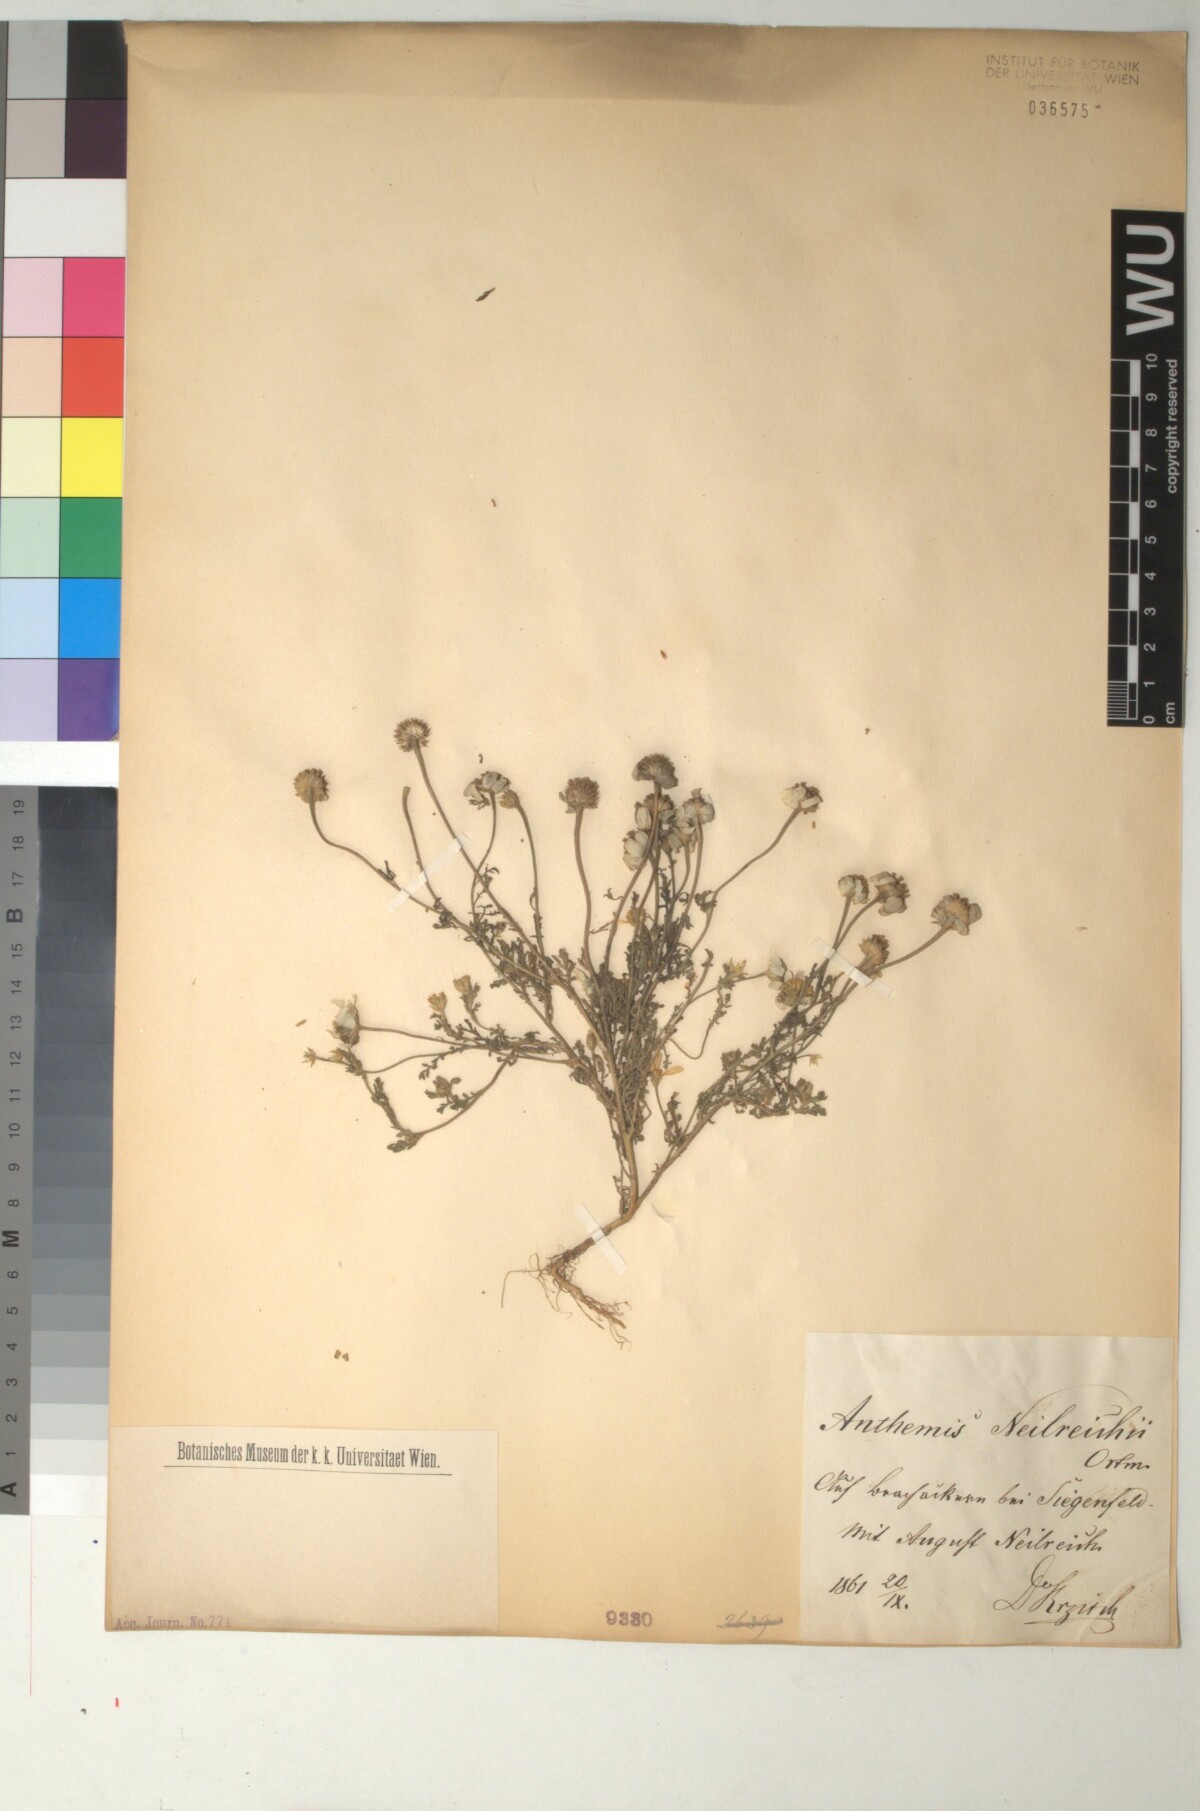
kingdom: Plantae
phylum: Tracheophyta
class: Magnoliopsida
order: Asterales
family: Asteraceae
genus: Anthemis
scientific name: Anthemis ruthenica
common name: Eastern chamomile
